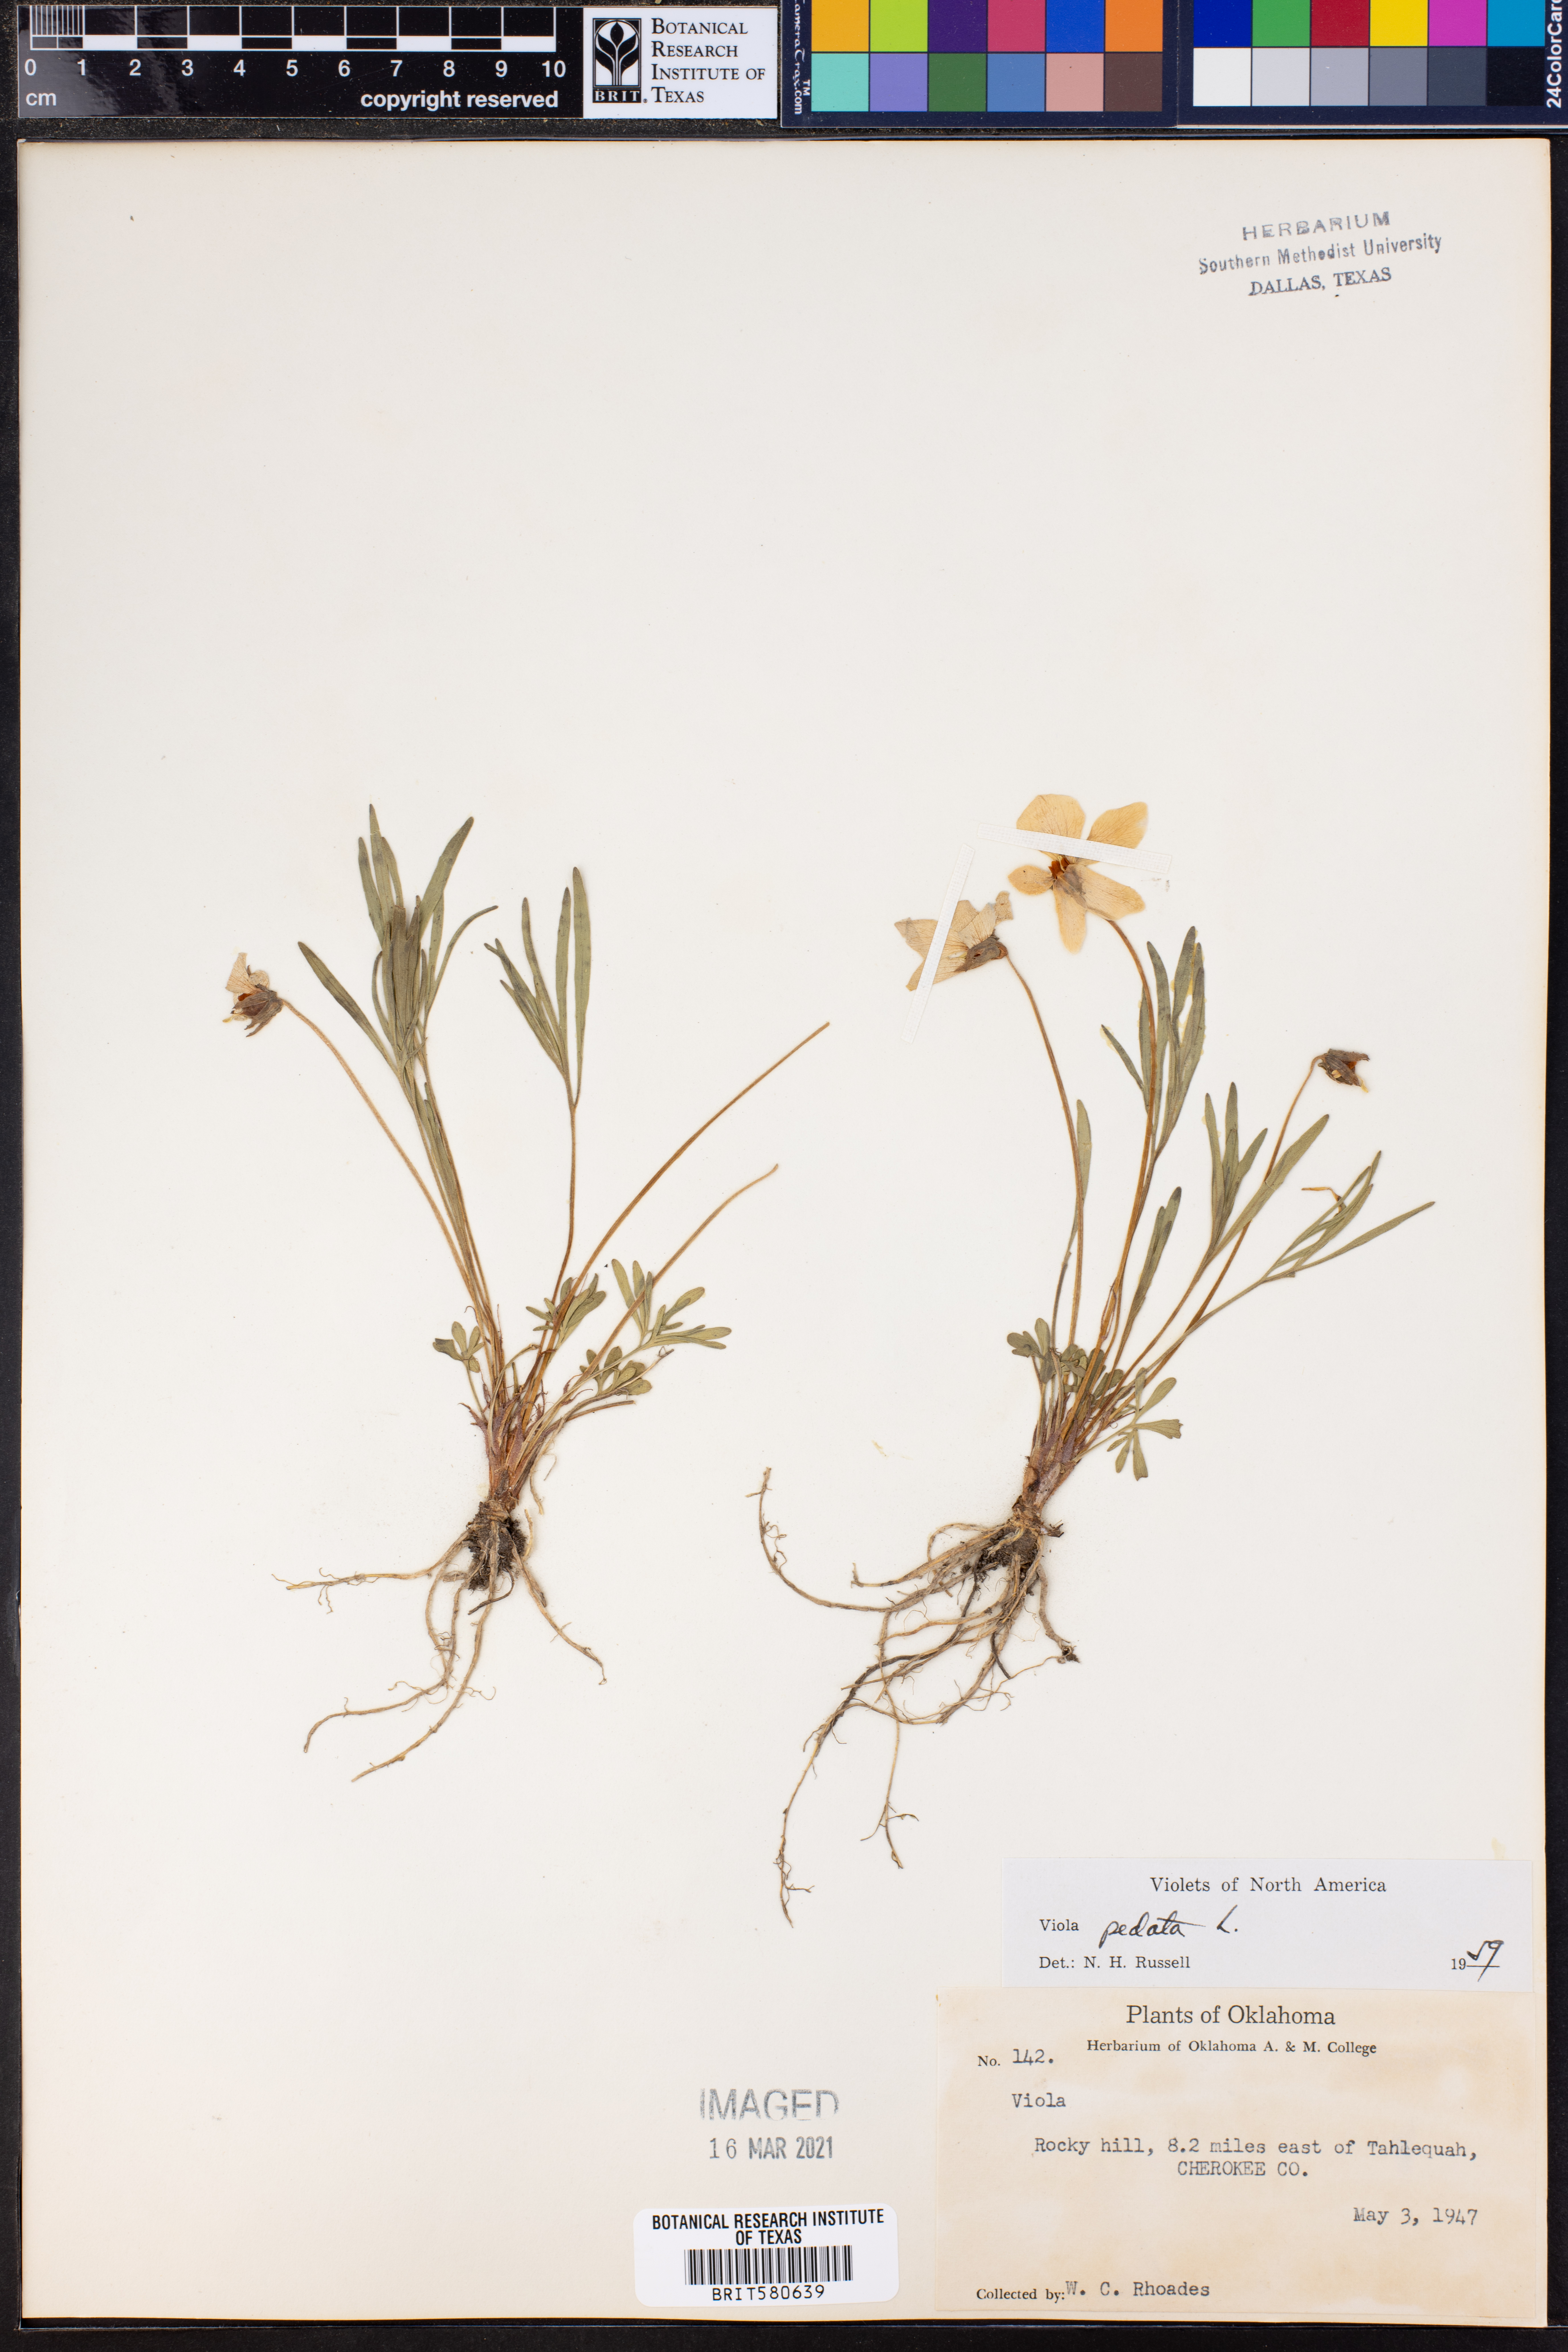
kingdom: Plantae
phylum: Tracheophyta
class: Magnoliopsida
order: Malpighiales
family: Violaceae
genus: Viola
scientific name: Viola pedata
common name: Pansy violet
